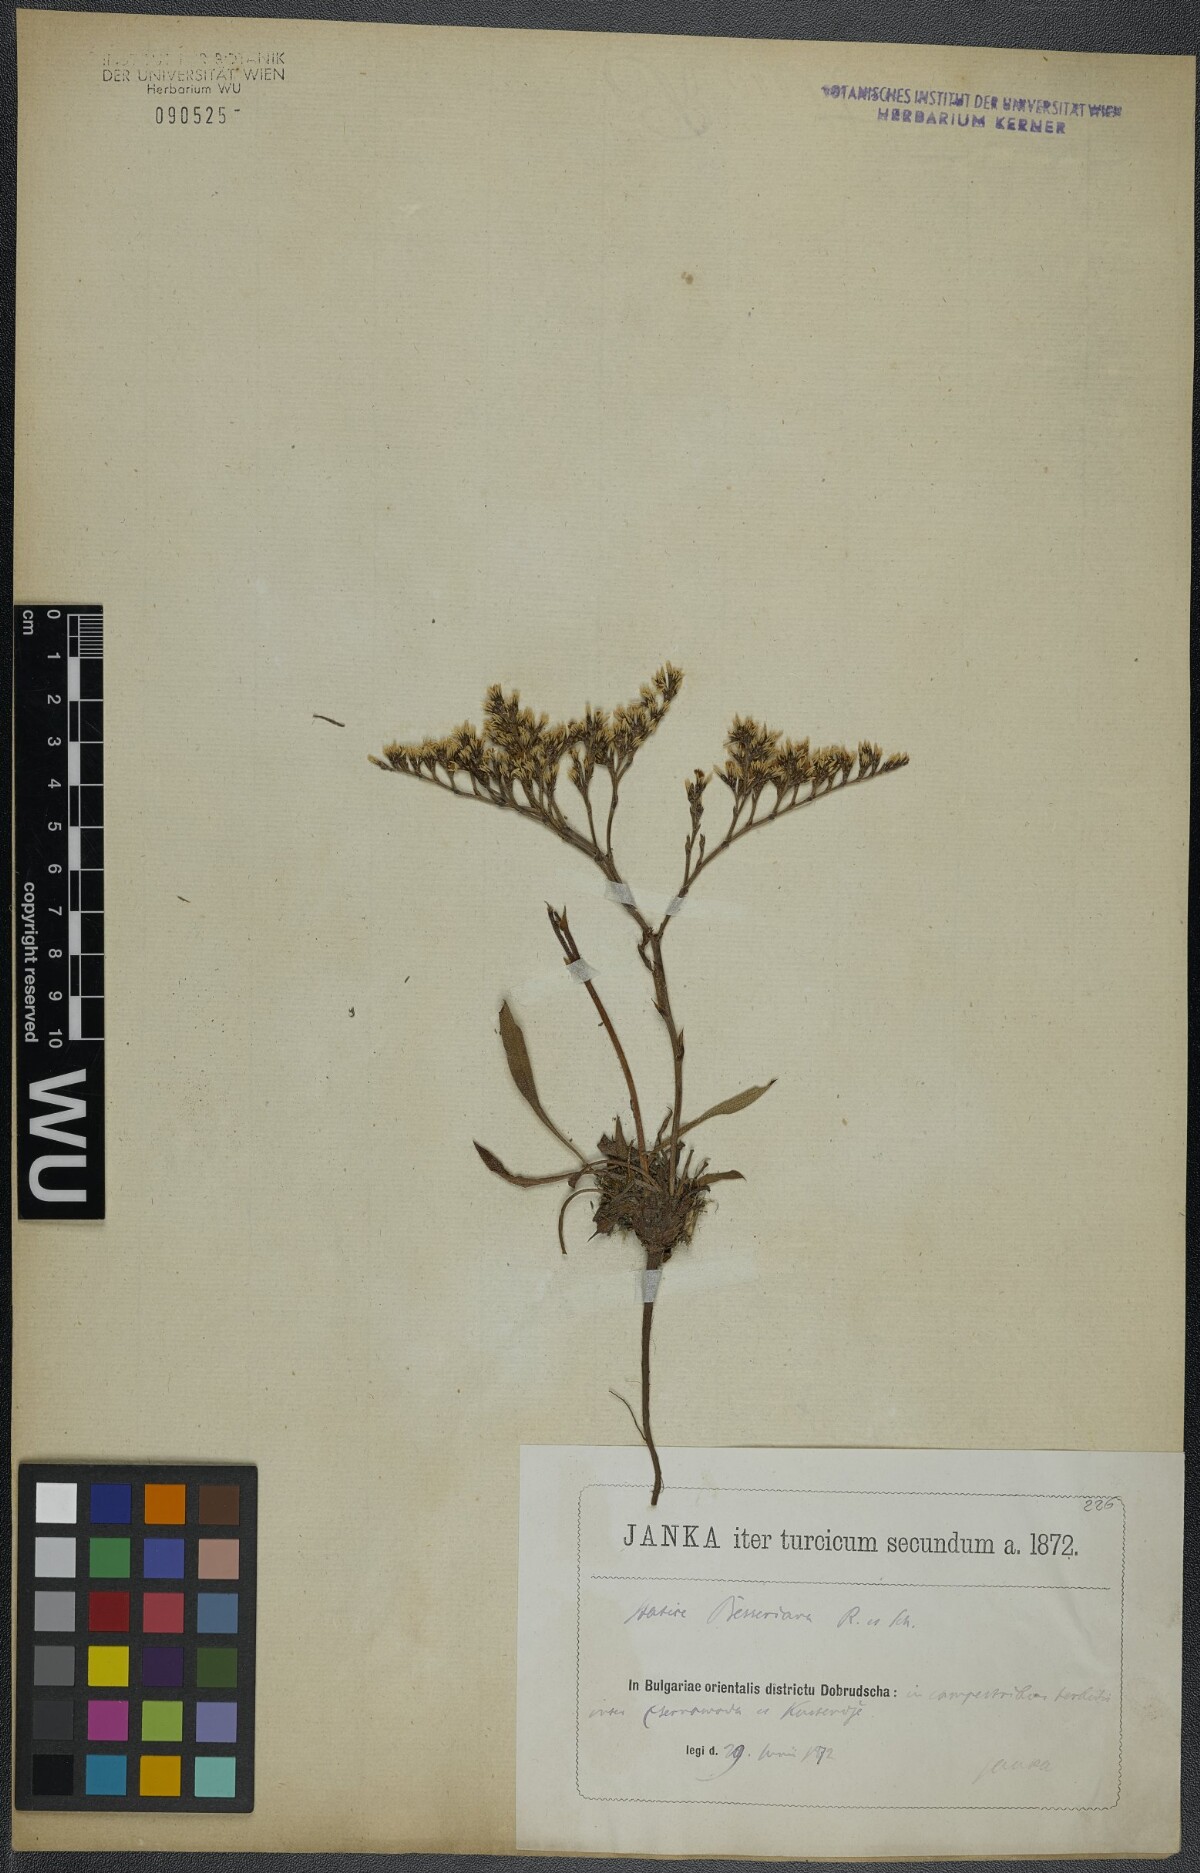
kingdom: Plantae
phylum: Tracheophyta
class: Magnoliopsida
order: Caryophyllales
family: Plumbaginaceae
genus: Goniolimon
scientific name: Goniolimon besserianum
